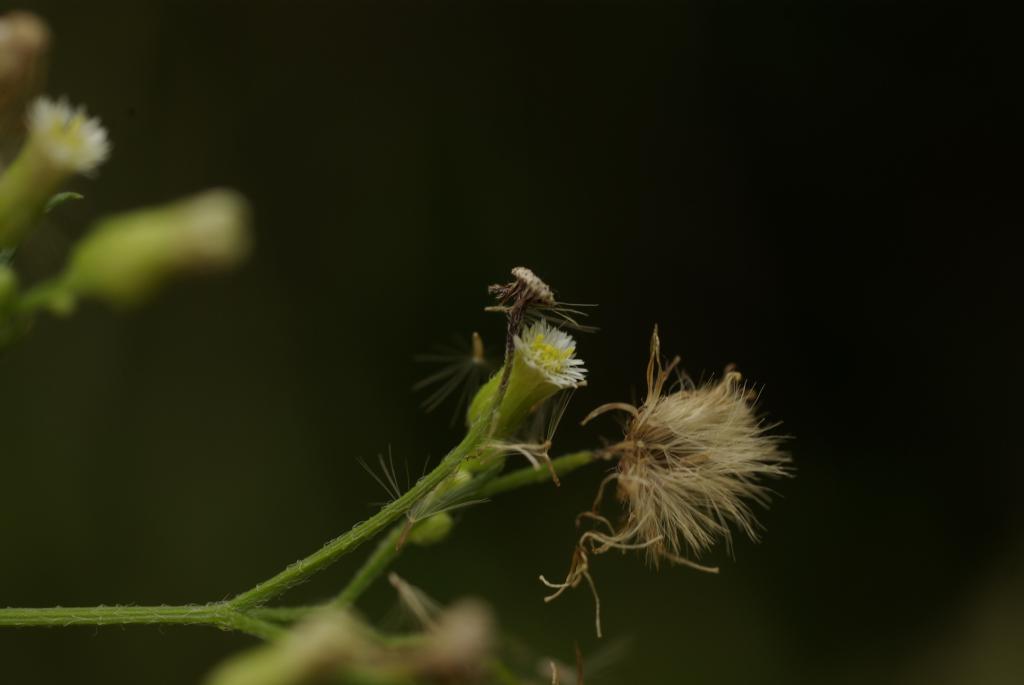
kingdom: Plantae
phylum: Tracheophyta
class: Magnoliopsida
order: Asterales
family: Asteraceae
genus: Erigeron
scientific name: Erigeron canadensis
